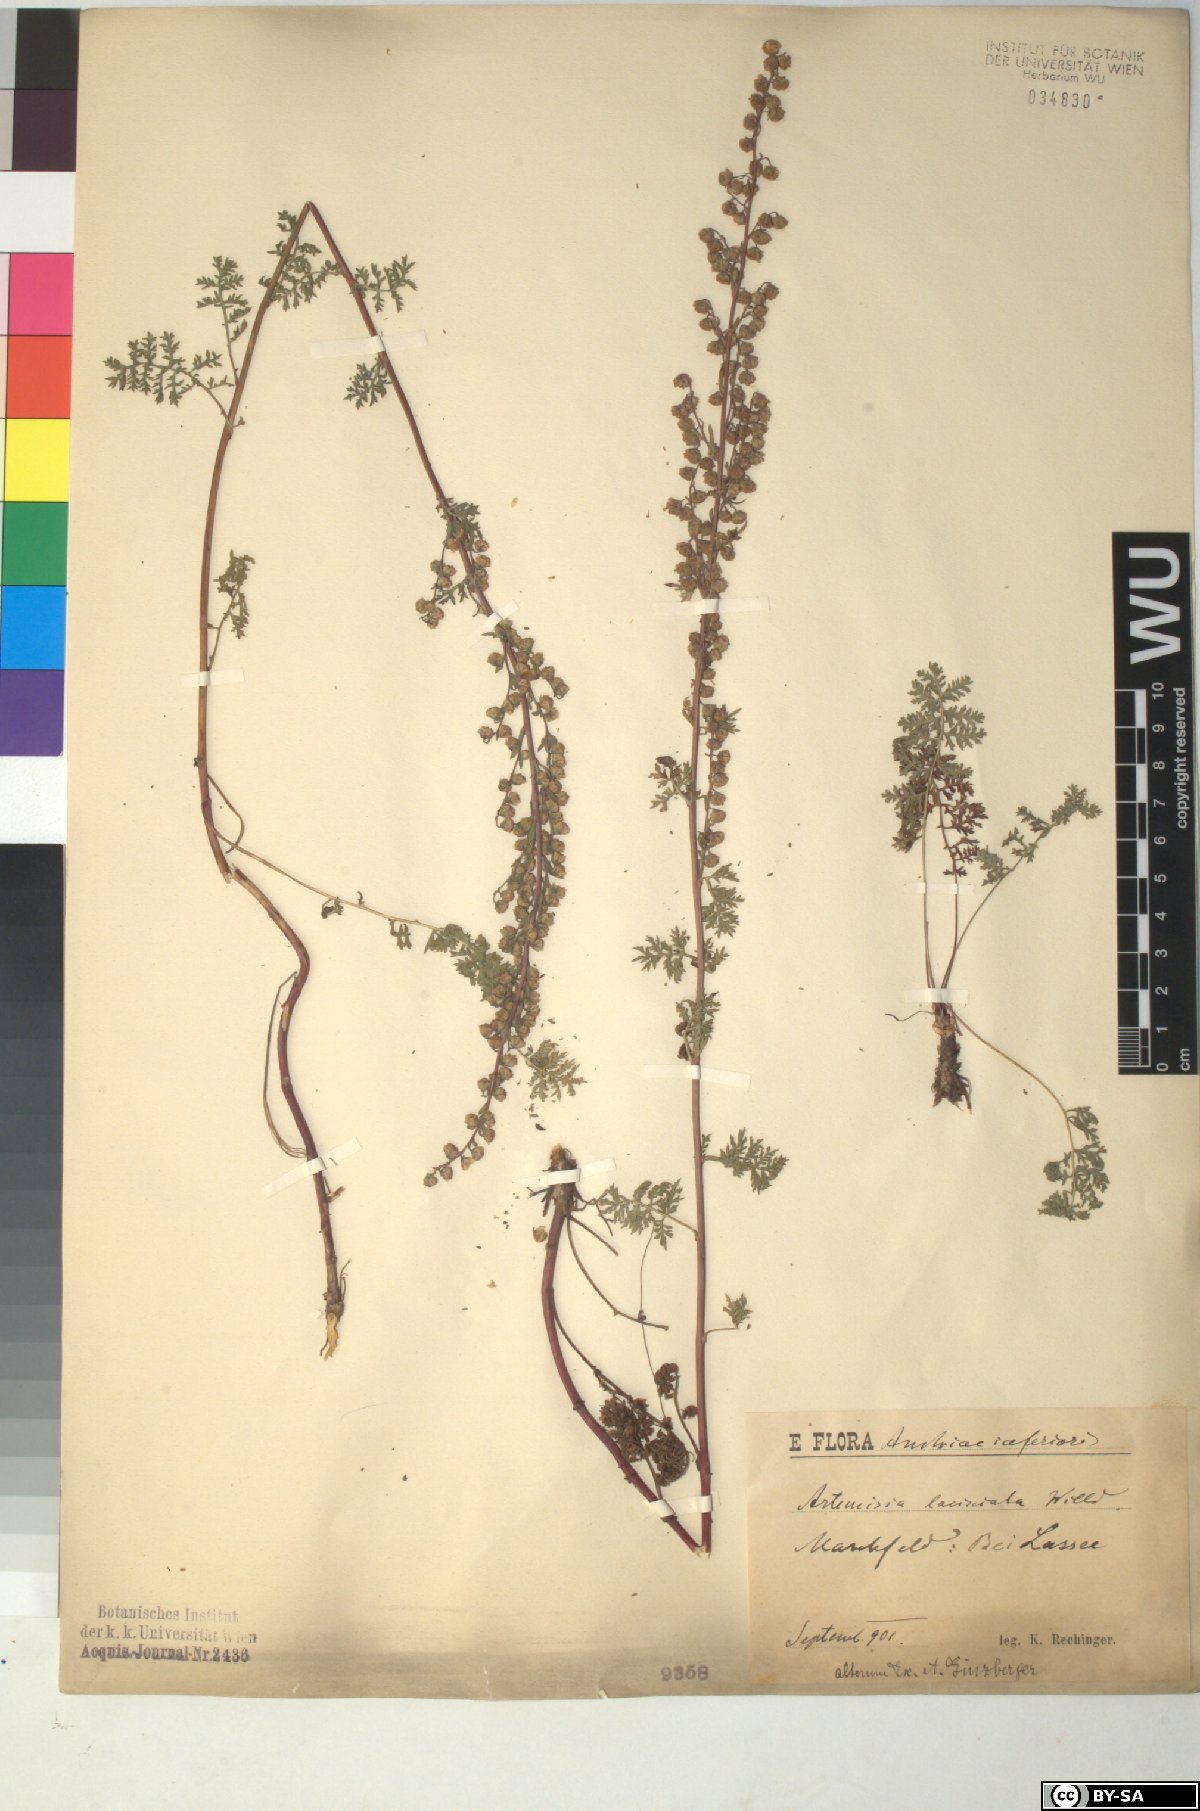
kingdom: Plantae
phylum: Tracheophyta
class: Magnoliopsida
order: Asterales
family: Asteraceae
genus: Artemisia
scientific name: Artemisia laciniata
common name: Siberian wormwood
